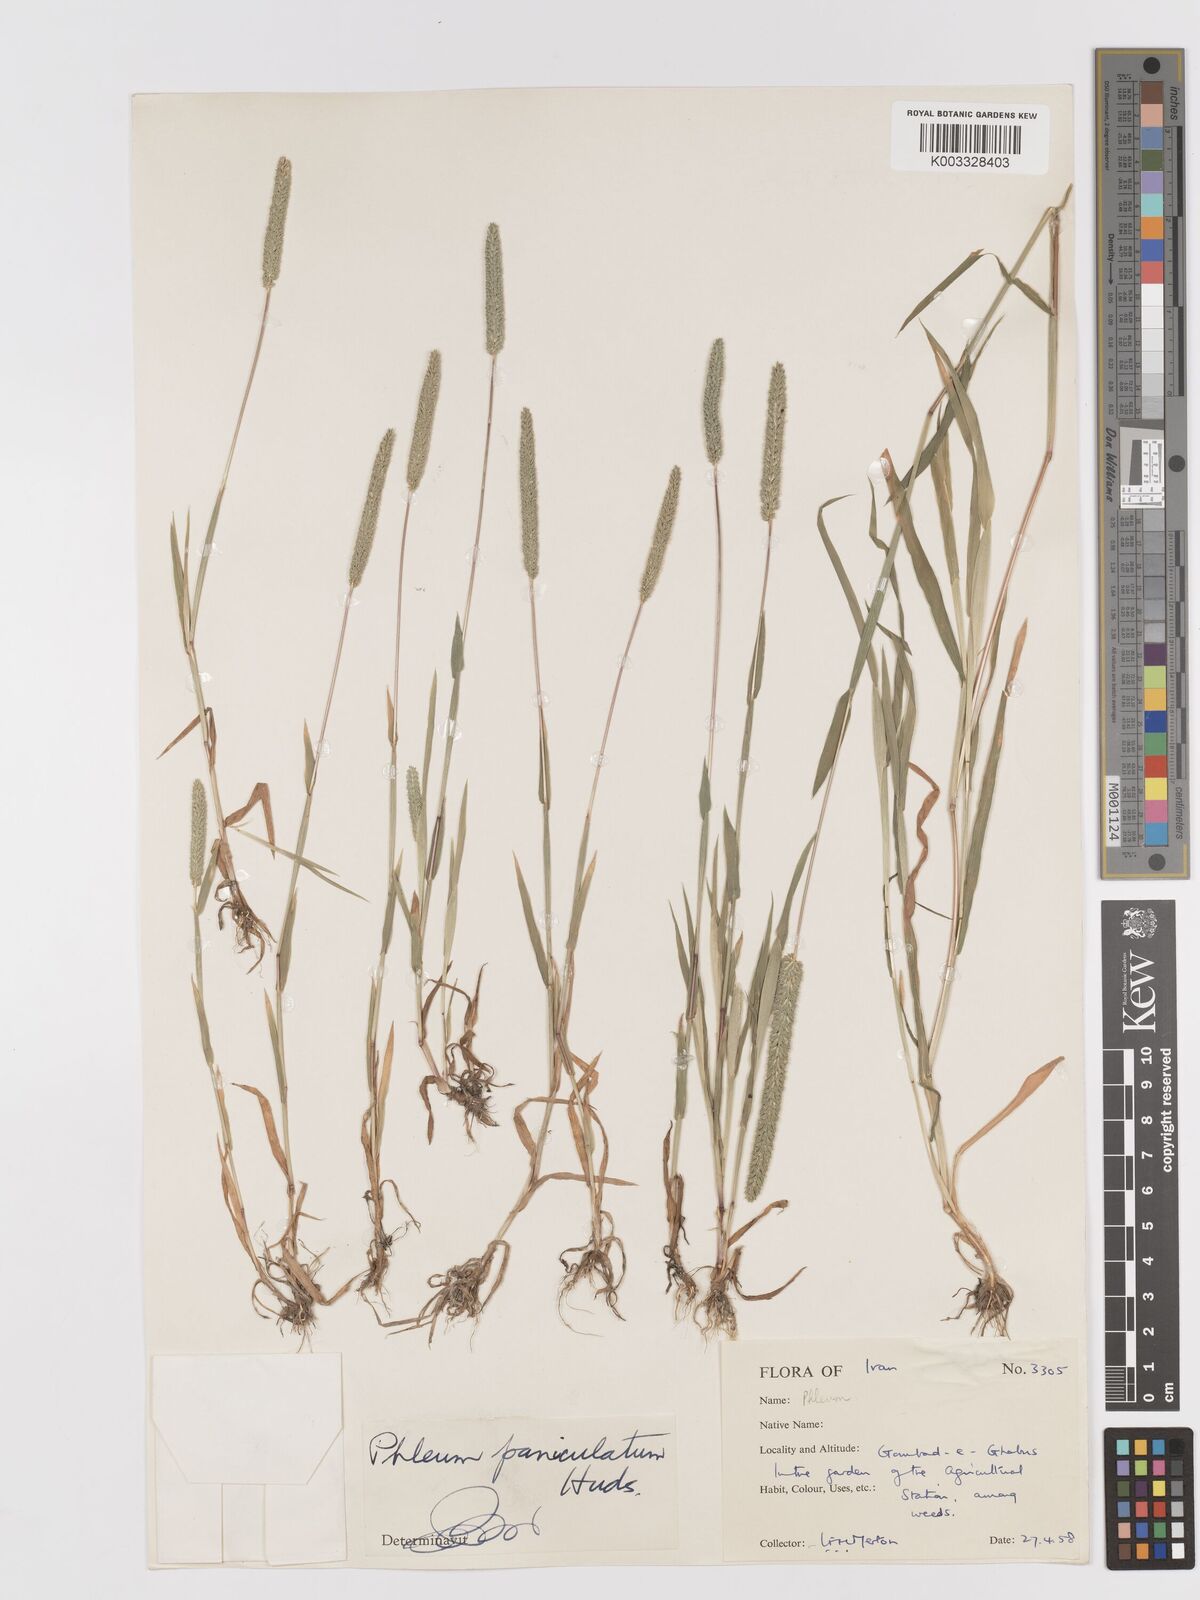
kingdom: Plantae
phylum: Tracheophyta
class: Liliopsida
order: Poales
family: Poaceae
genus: Phleum
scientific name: Phleum paniculatum
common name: British timothy
